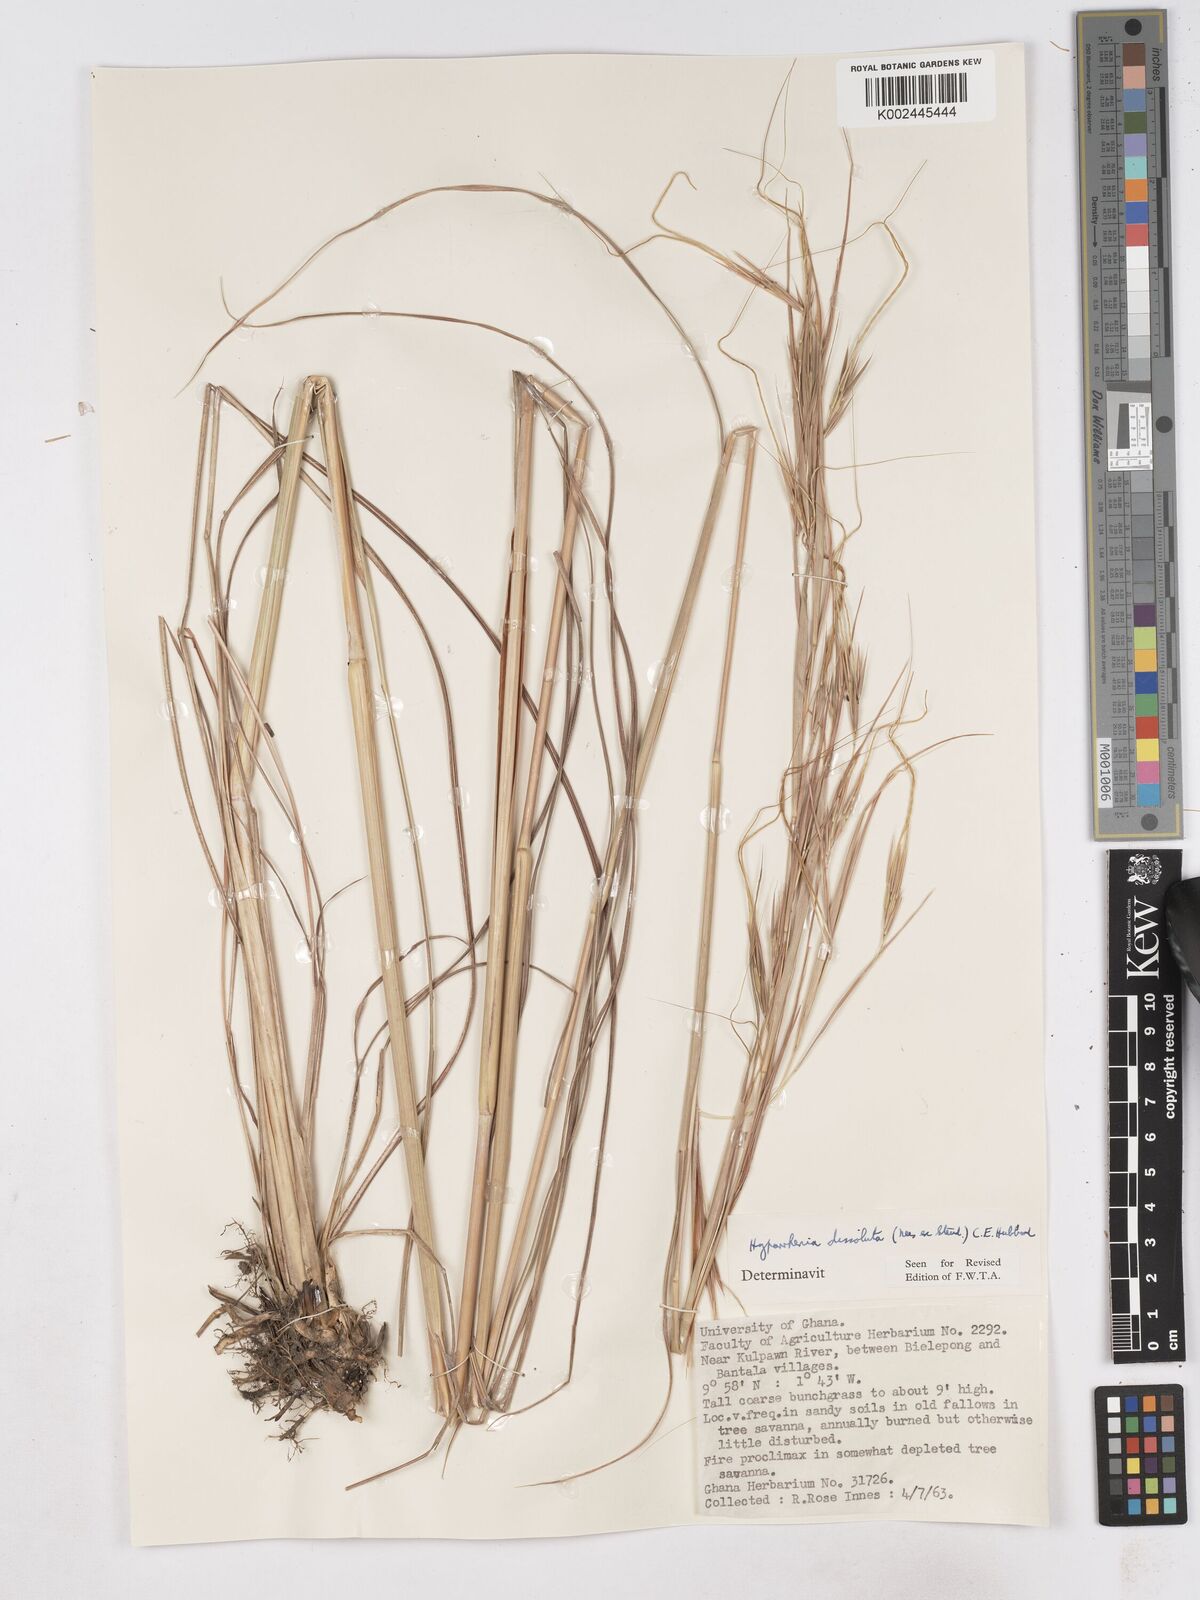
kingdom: Plantae
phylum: Tracheophyta
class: Liliopsida
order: Poales
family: Poaceae
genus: Hyperthelia
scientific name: Hyperthelia dissoluta
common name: Yellow thatching grass
